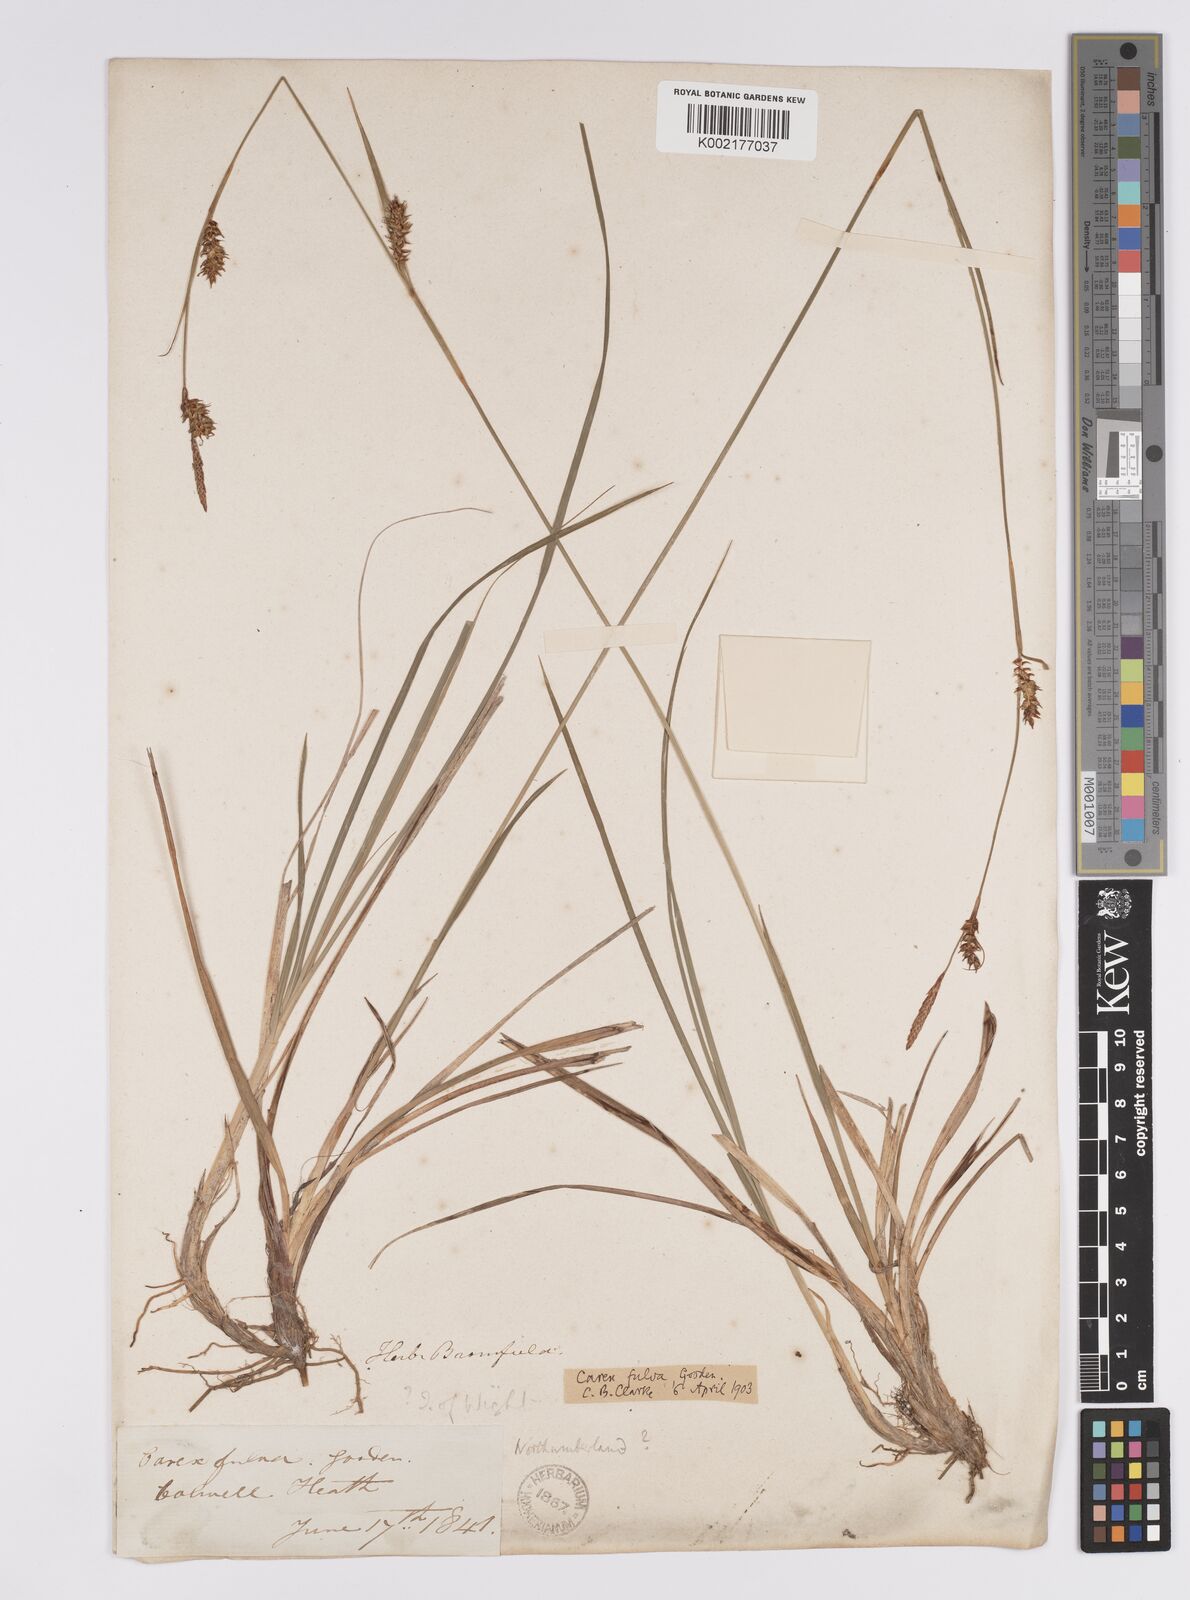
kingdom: Plantae
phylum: Tracheophyta
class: Liliopsida
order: Poales
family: Cyperaceae
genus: Carex
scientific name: Carex hostiana
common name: Tawny sedge
